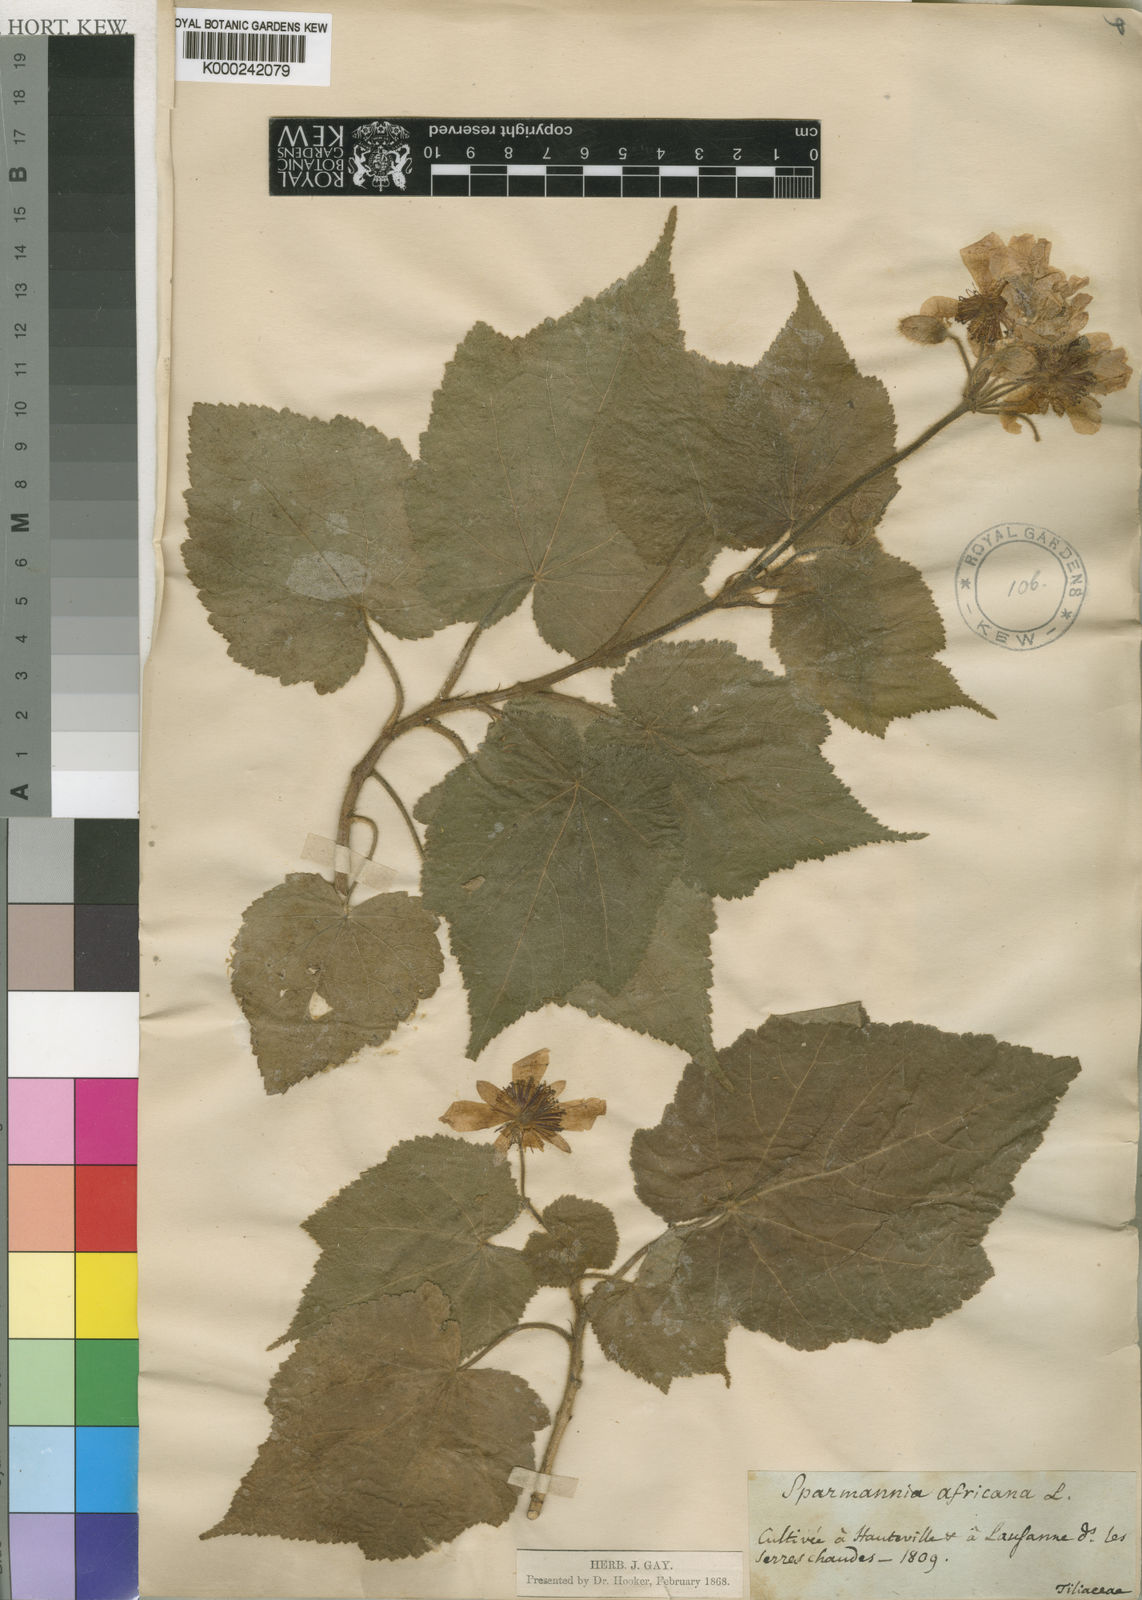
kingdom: Plantae
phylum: Tracheophyta
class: Magnoliopsida
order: Malvales
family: Malvaceae
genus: Sparrmannia
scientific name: Sparrmannia africana
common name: African-hemp
